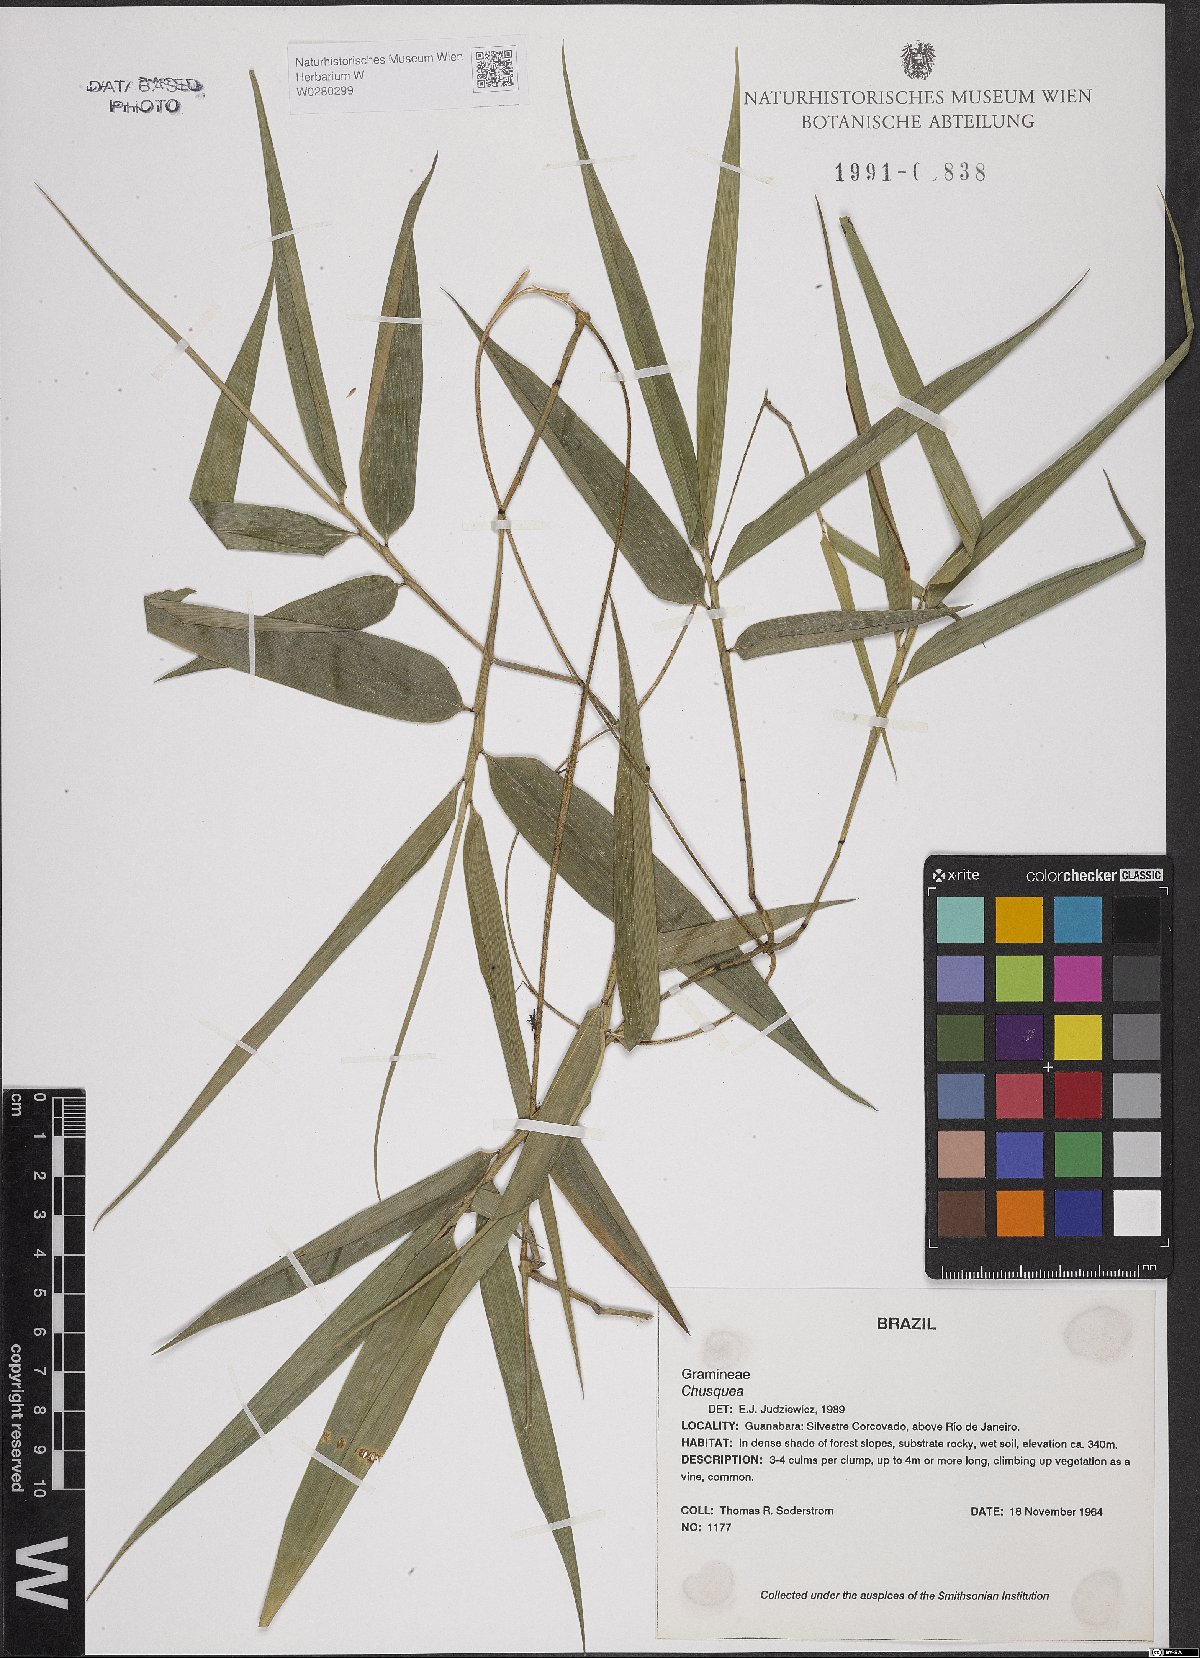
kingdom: Plantae
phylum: Tracheophyta
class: Liliopsida
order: Poales
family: Poaceae
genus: Chusquea
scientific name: Chusquea
